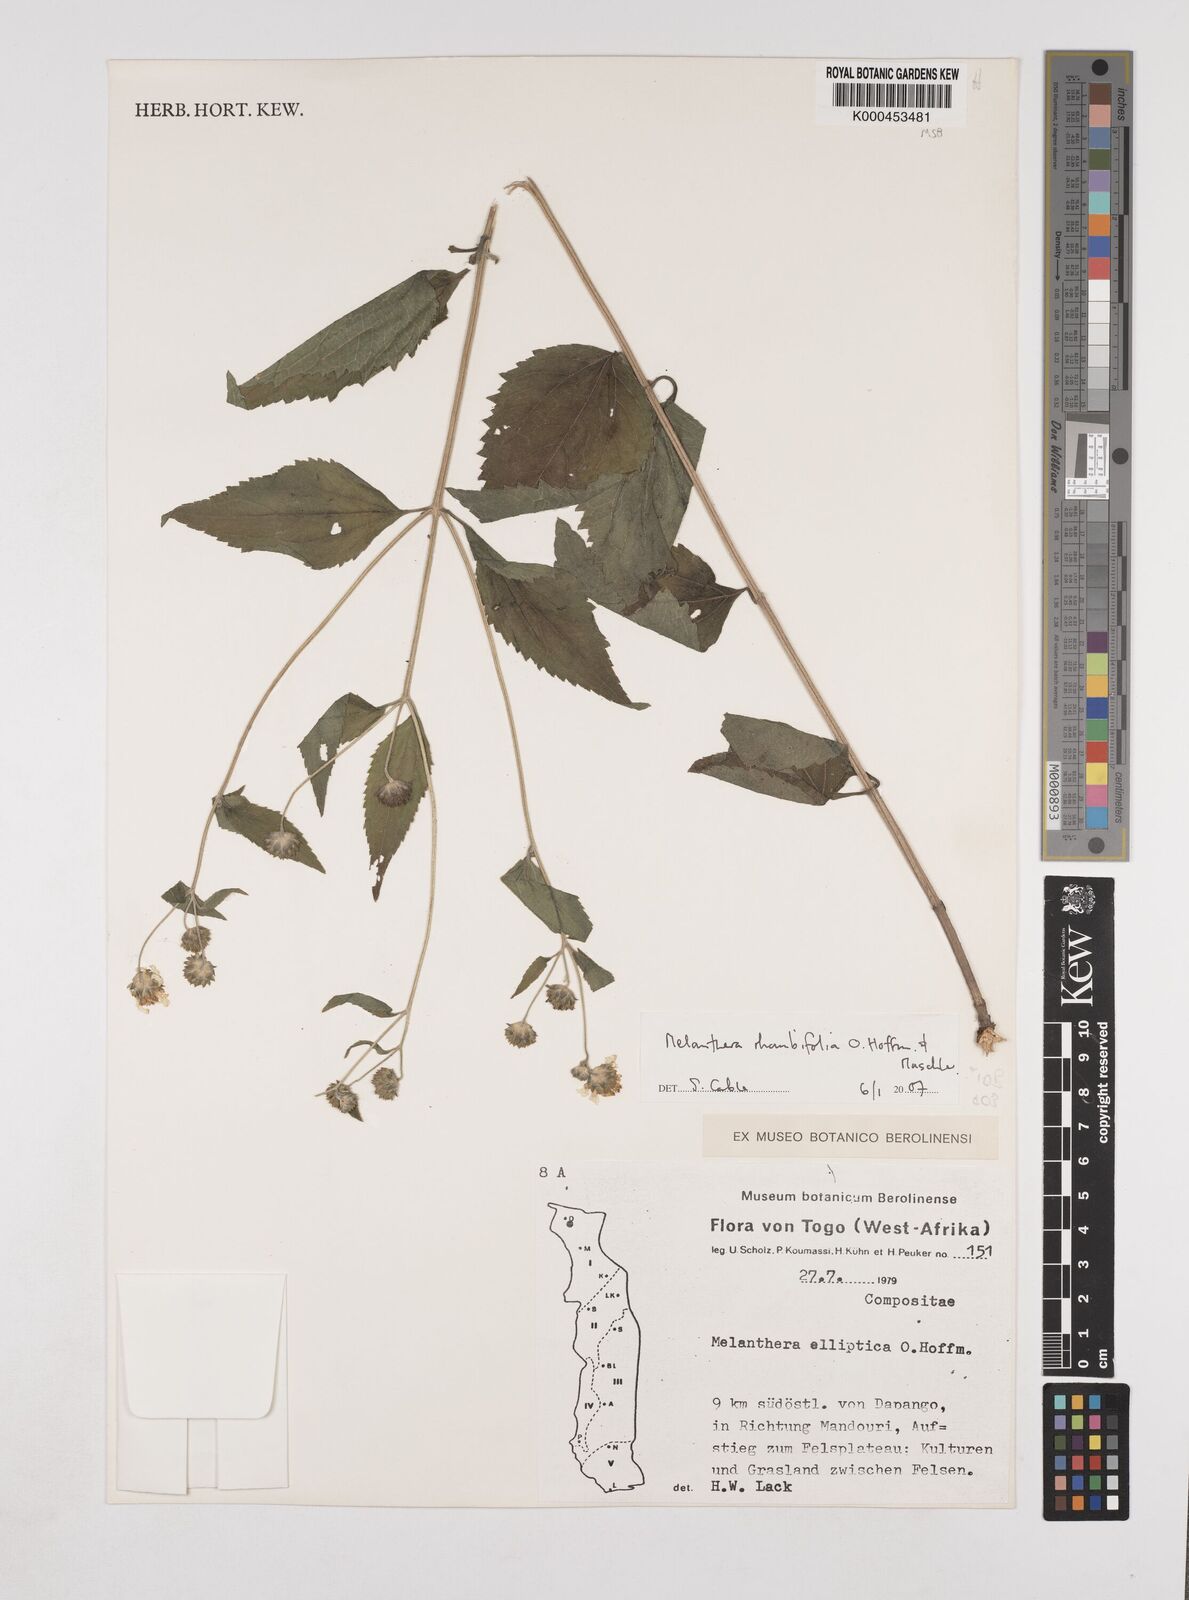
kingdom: Plantae
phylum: Tracheophyta
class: Magnoliopsida
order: Asterales
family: Asteraceae
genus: Lipotriche
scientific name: Lipotriche elliptica
